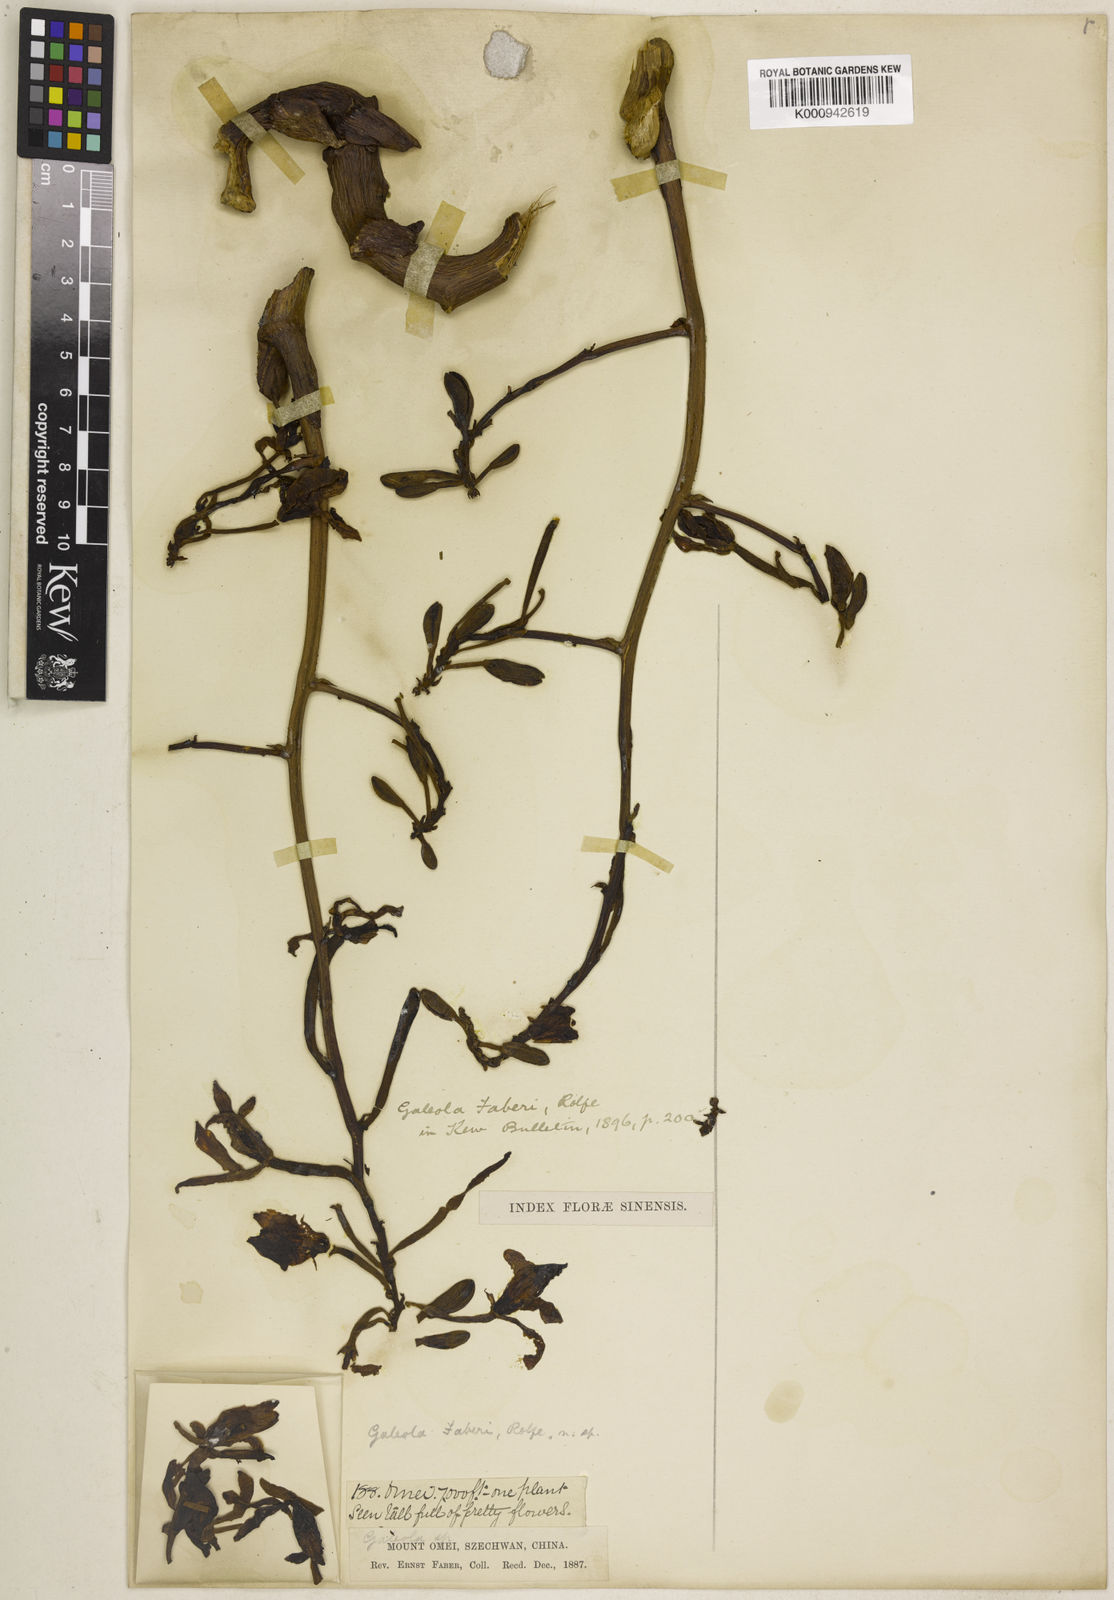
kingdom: Plantae
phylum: Tracheophyta
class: Liliopsida
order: Asparagales
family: Orchidaceae
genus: Galeola
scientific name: Galeola faberi
